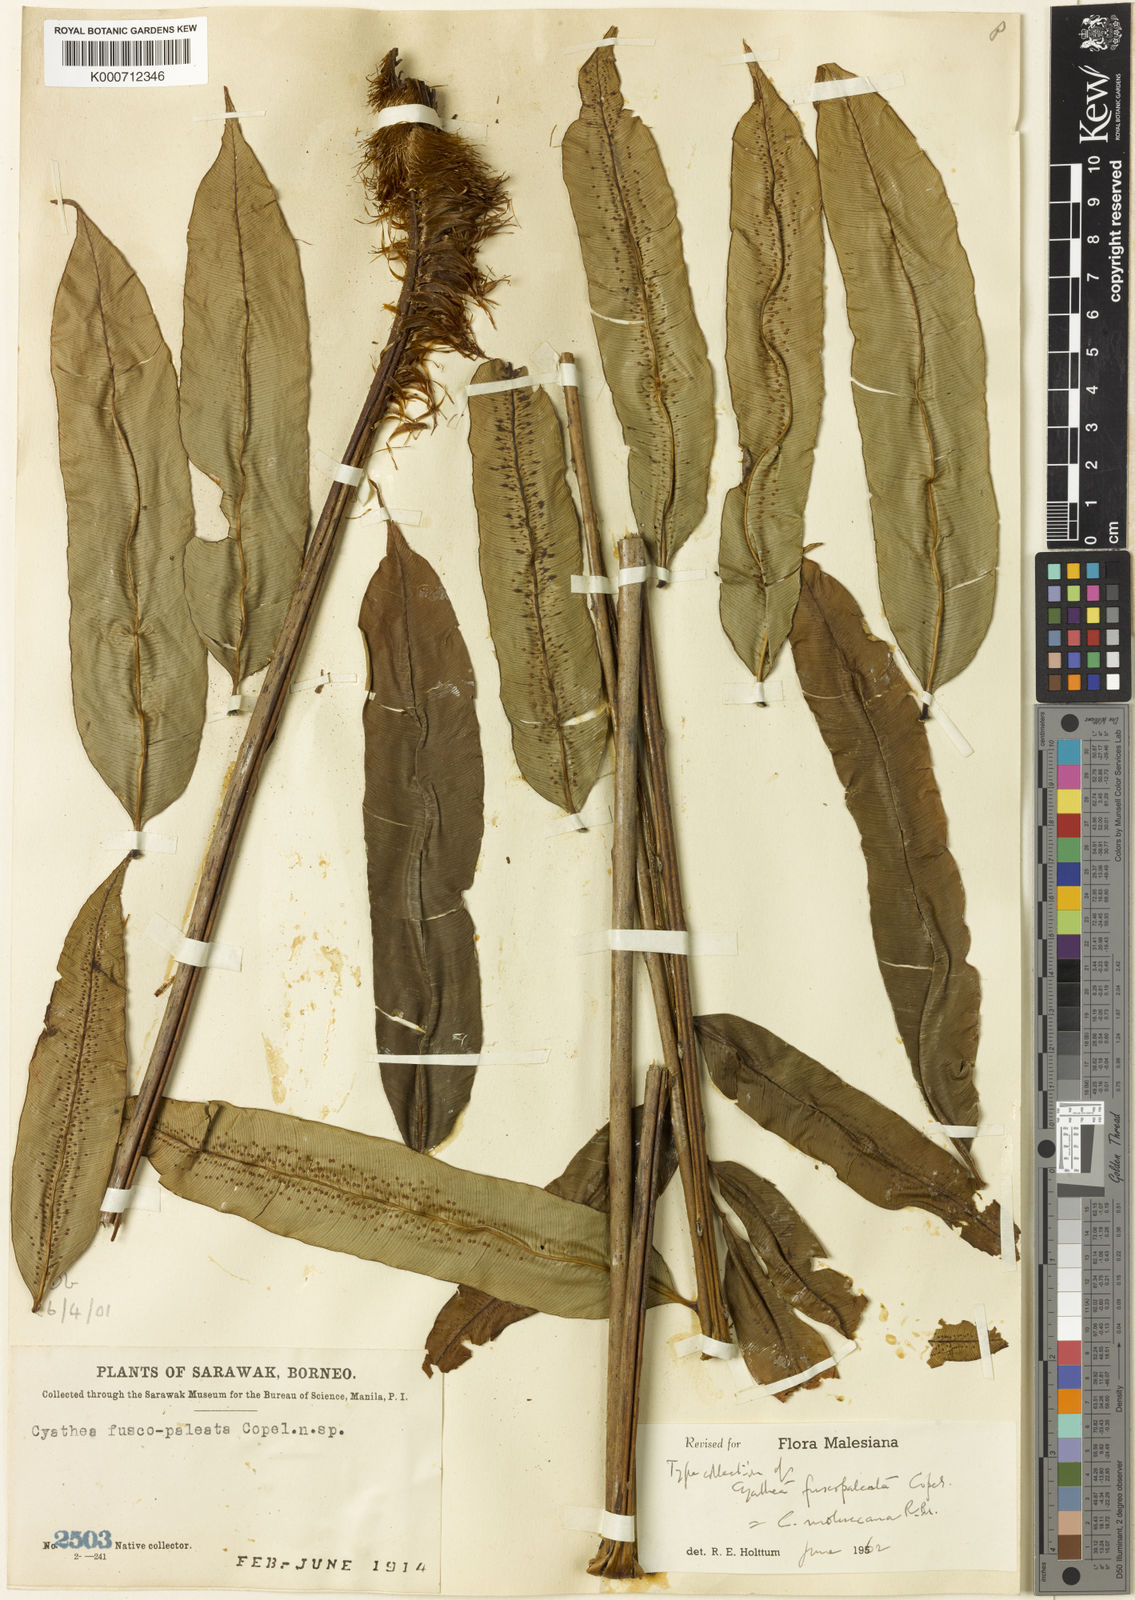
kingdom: Plantae
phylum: Tracheophyta
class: Polypodiopsida
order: Cyatheales
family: Cyatheaceae
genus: Sphaeropteris
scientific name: Sphaeropteris moluccana
